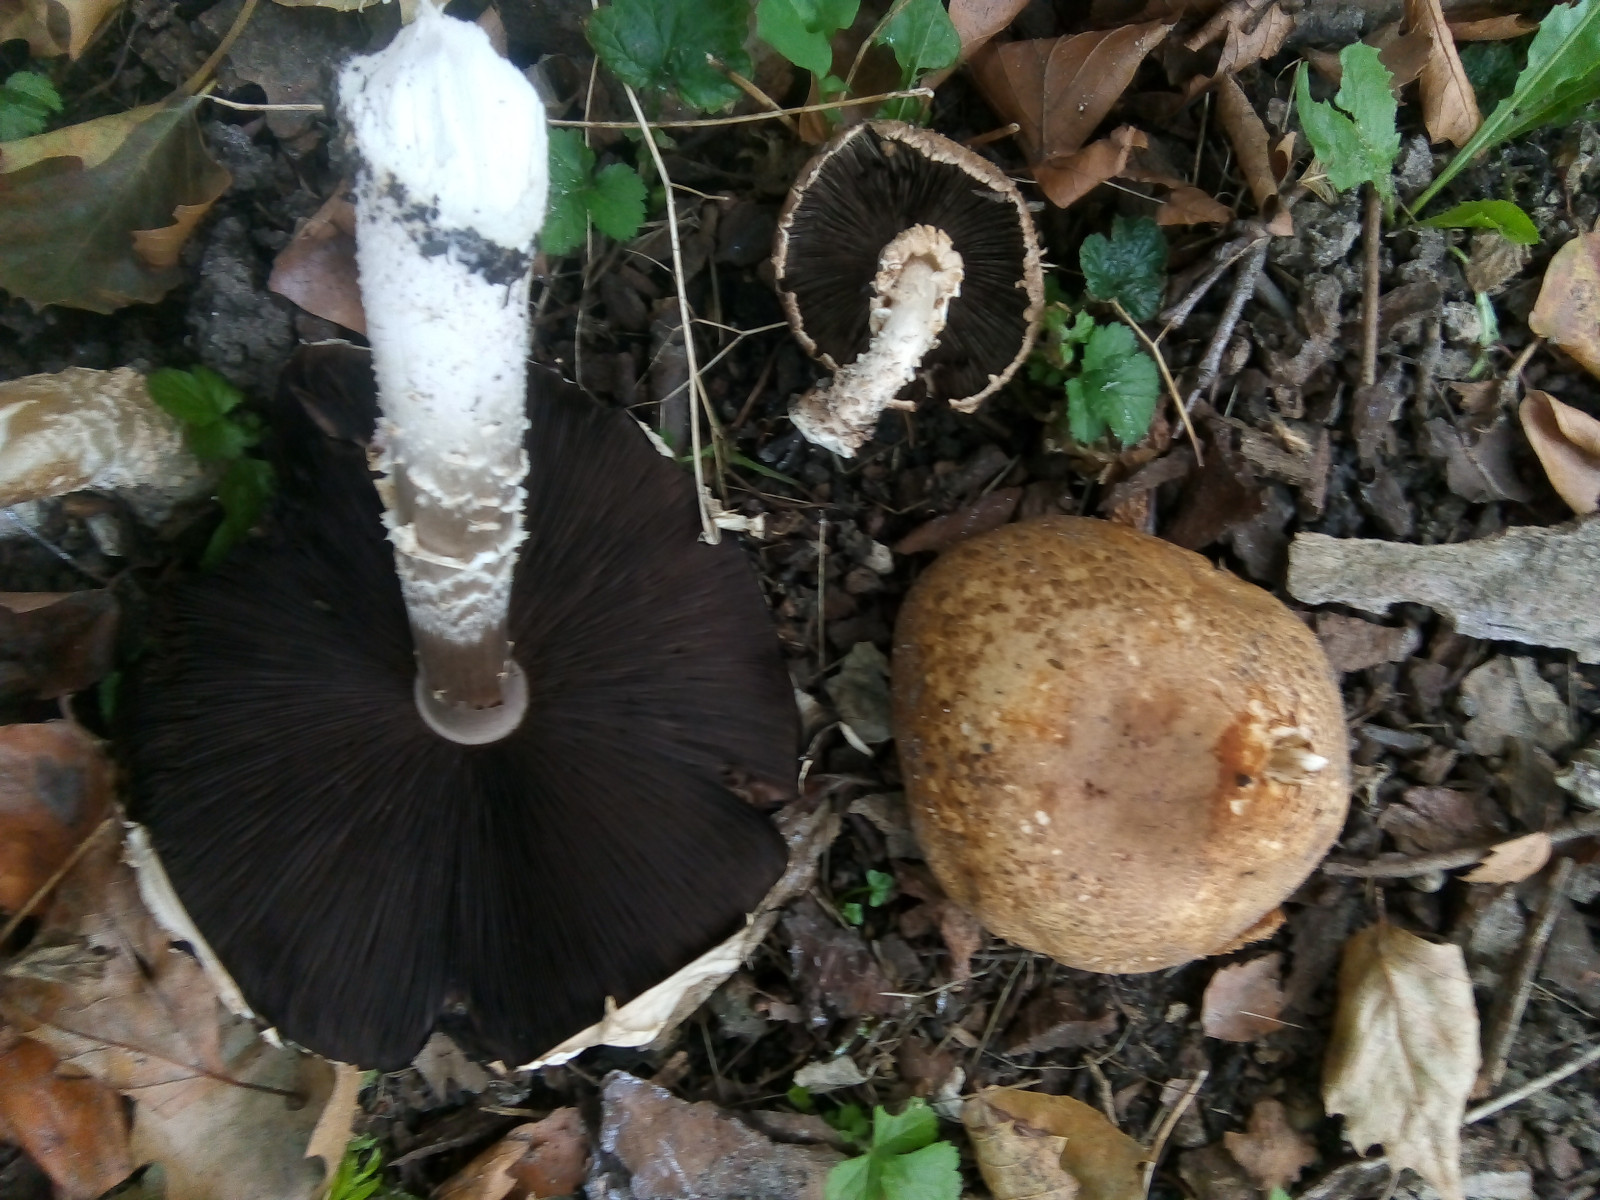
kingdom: Fungi
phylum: Basidiomycota
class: Agaricomycetes
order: Agaricales
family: Agaricaceae
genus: Agaricus
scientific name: Agaricus augustus
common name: prægtig champignon
